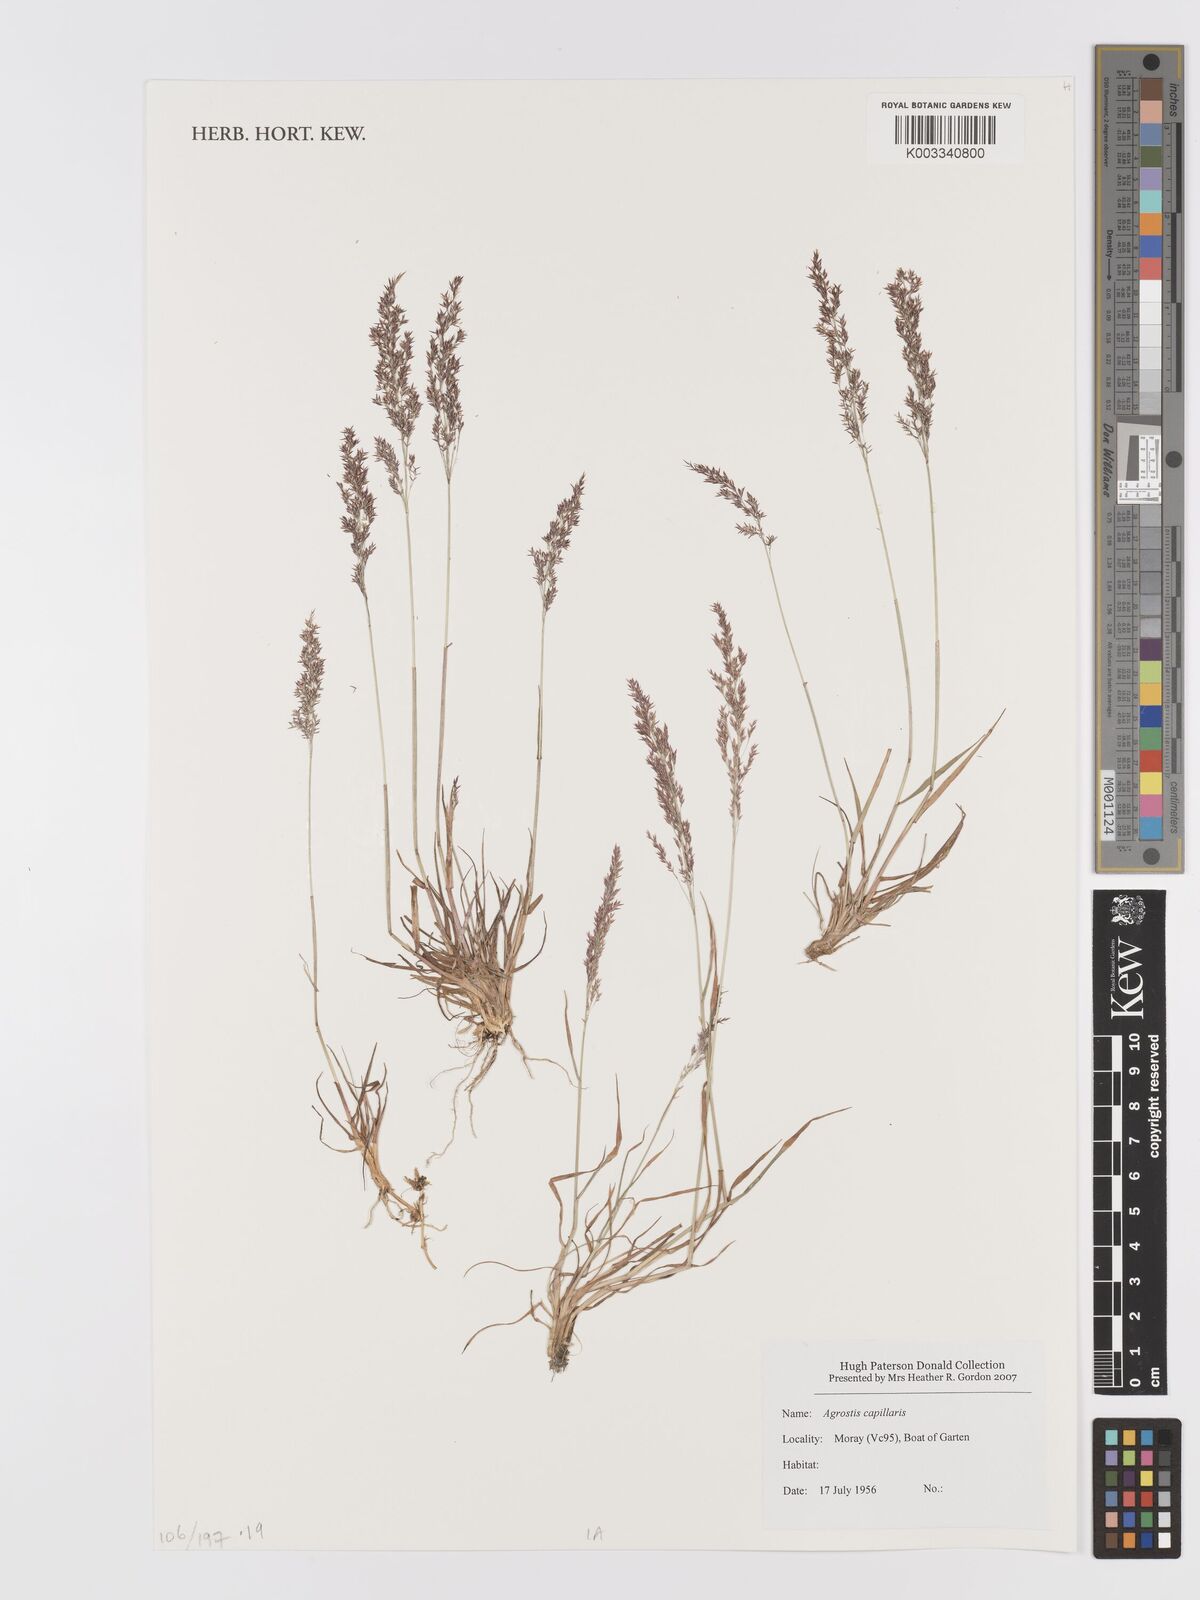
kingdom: Plantae
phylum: Tracheophyta
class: Liliopsida
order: Poales
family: Poaceae
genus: Agrostis
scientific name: Agrostis capillaris
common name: Colonial bentgrass
